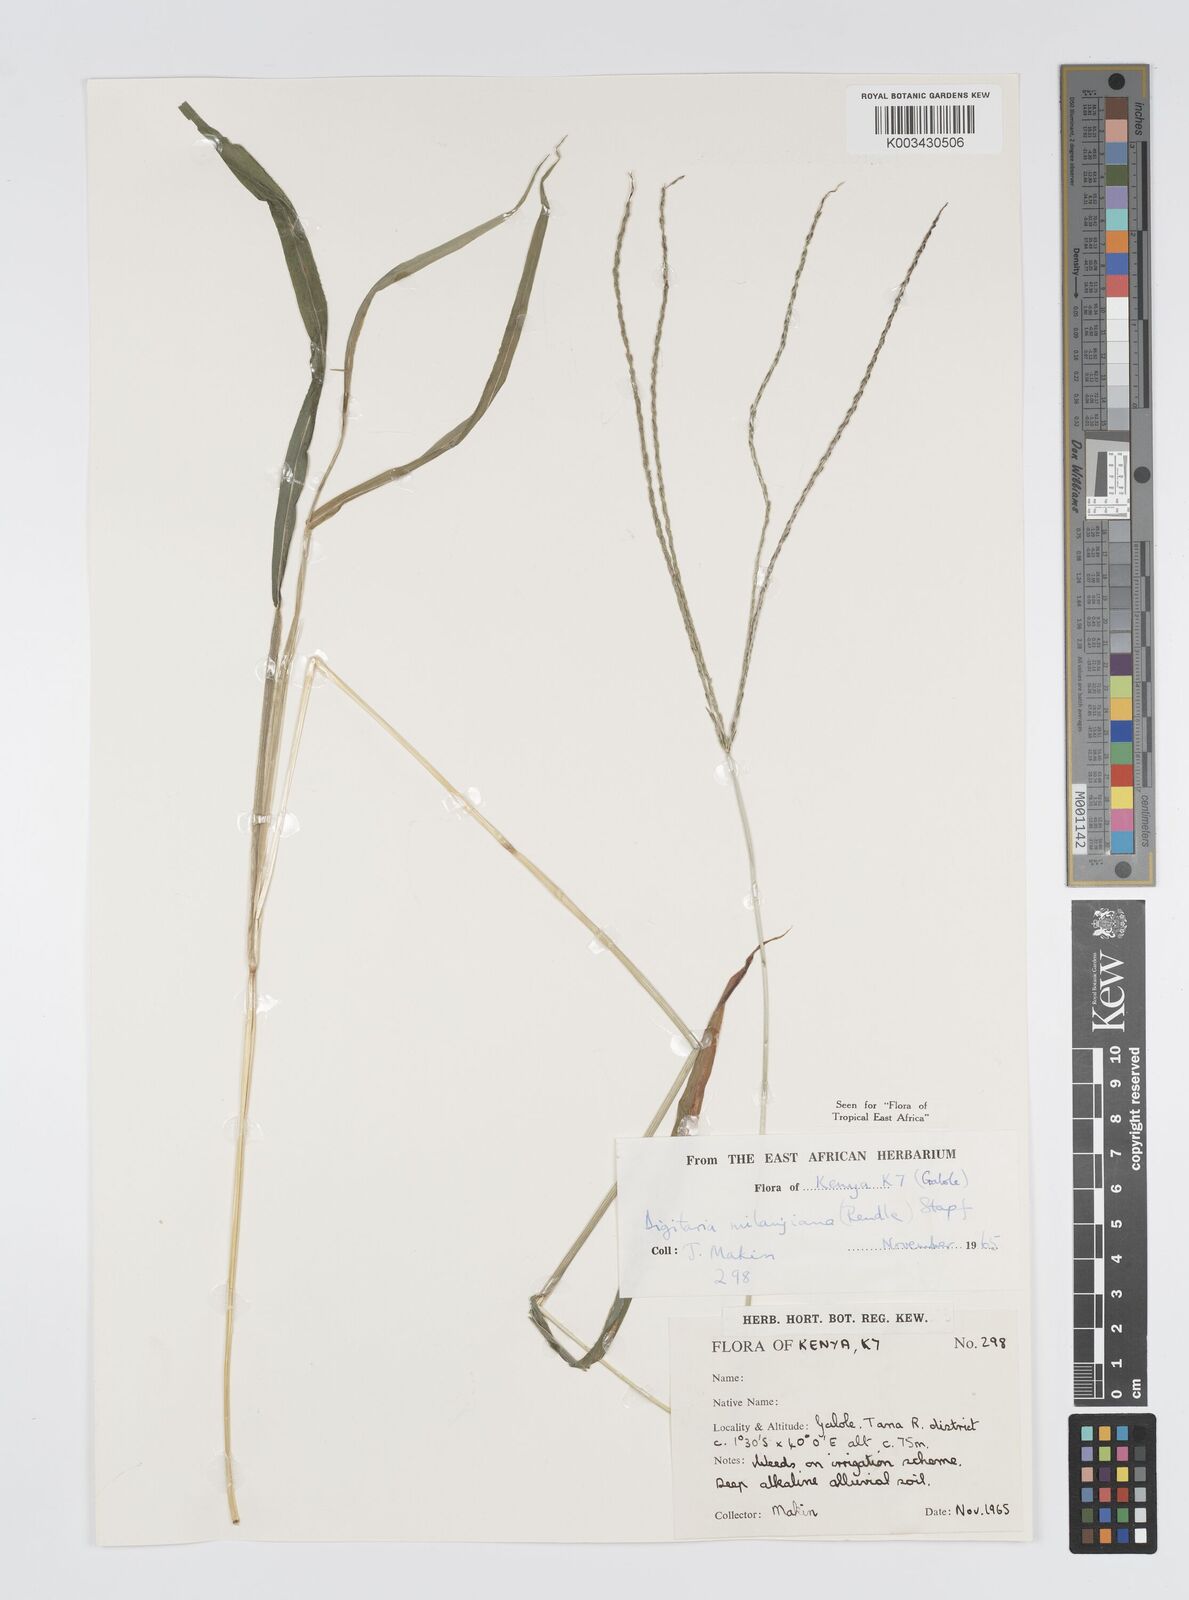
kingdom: Plantae
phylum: Tracheophyta
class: Liliopsida
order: Poales
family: Poaceae
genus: Digitaria
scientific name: Digitaria milanjiana
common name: Madagascar crabgrass
